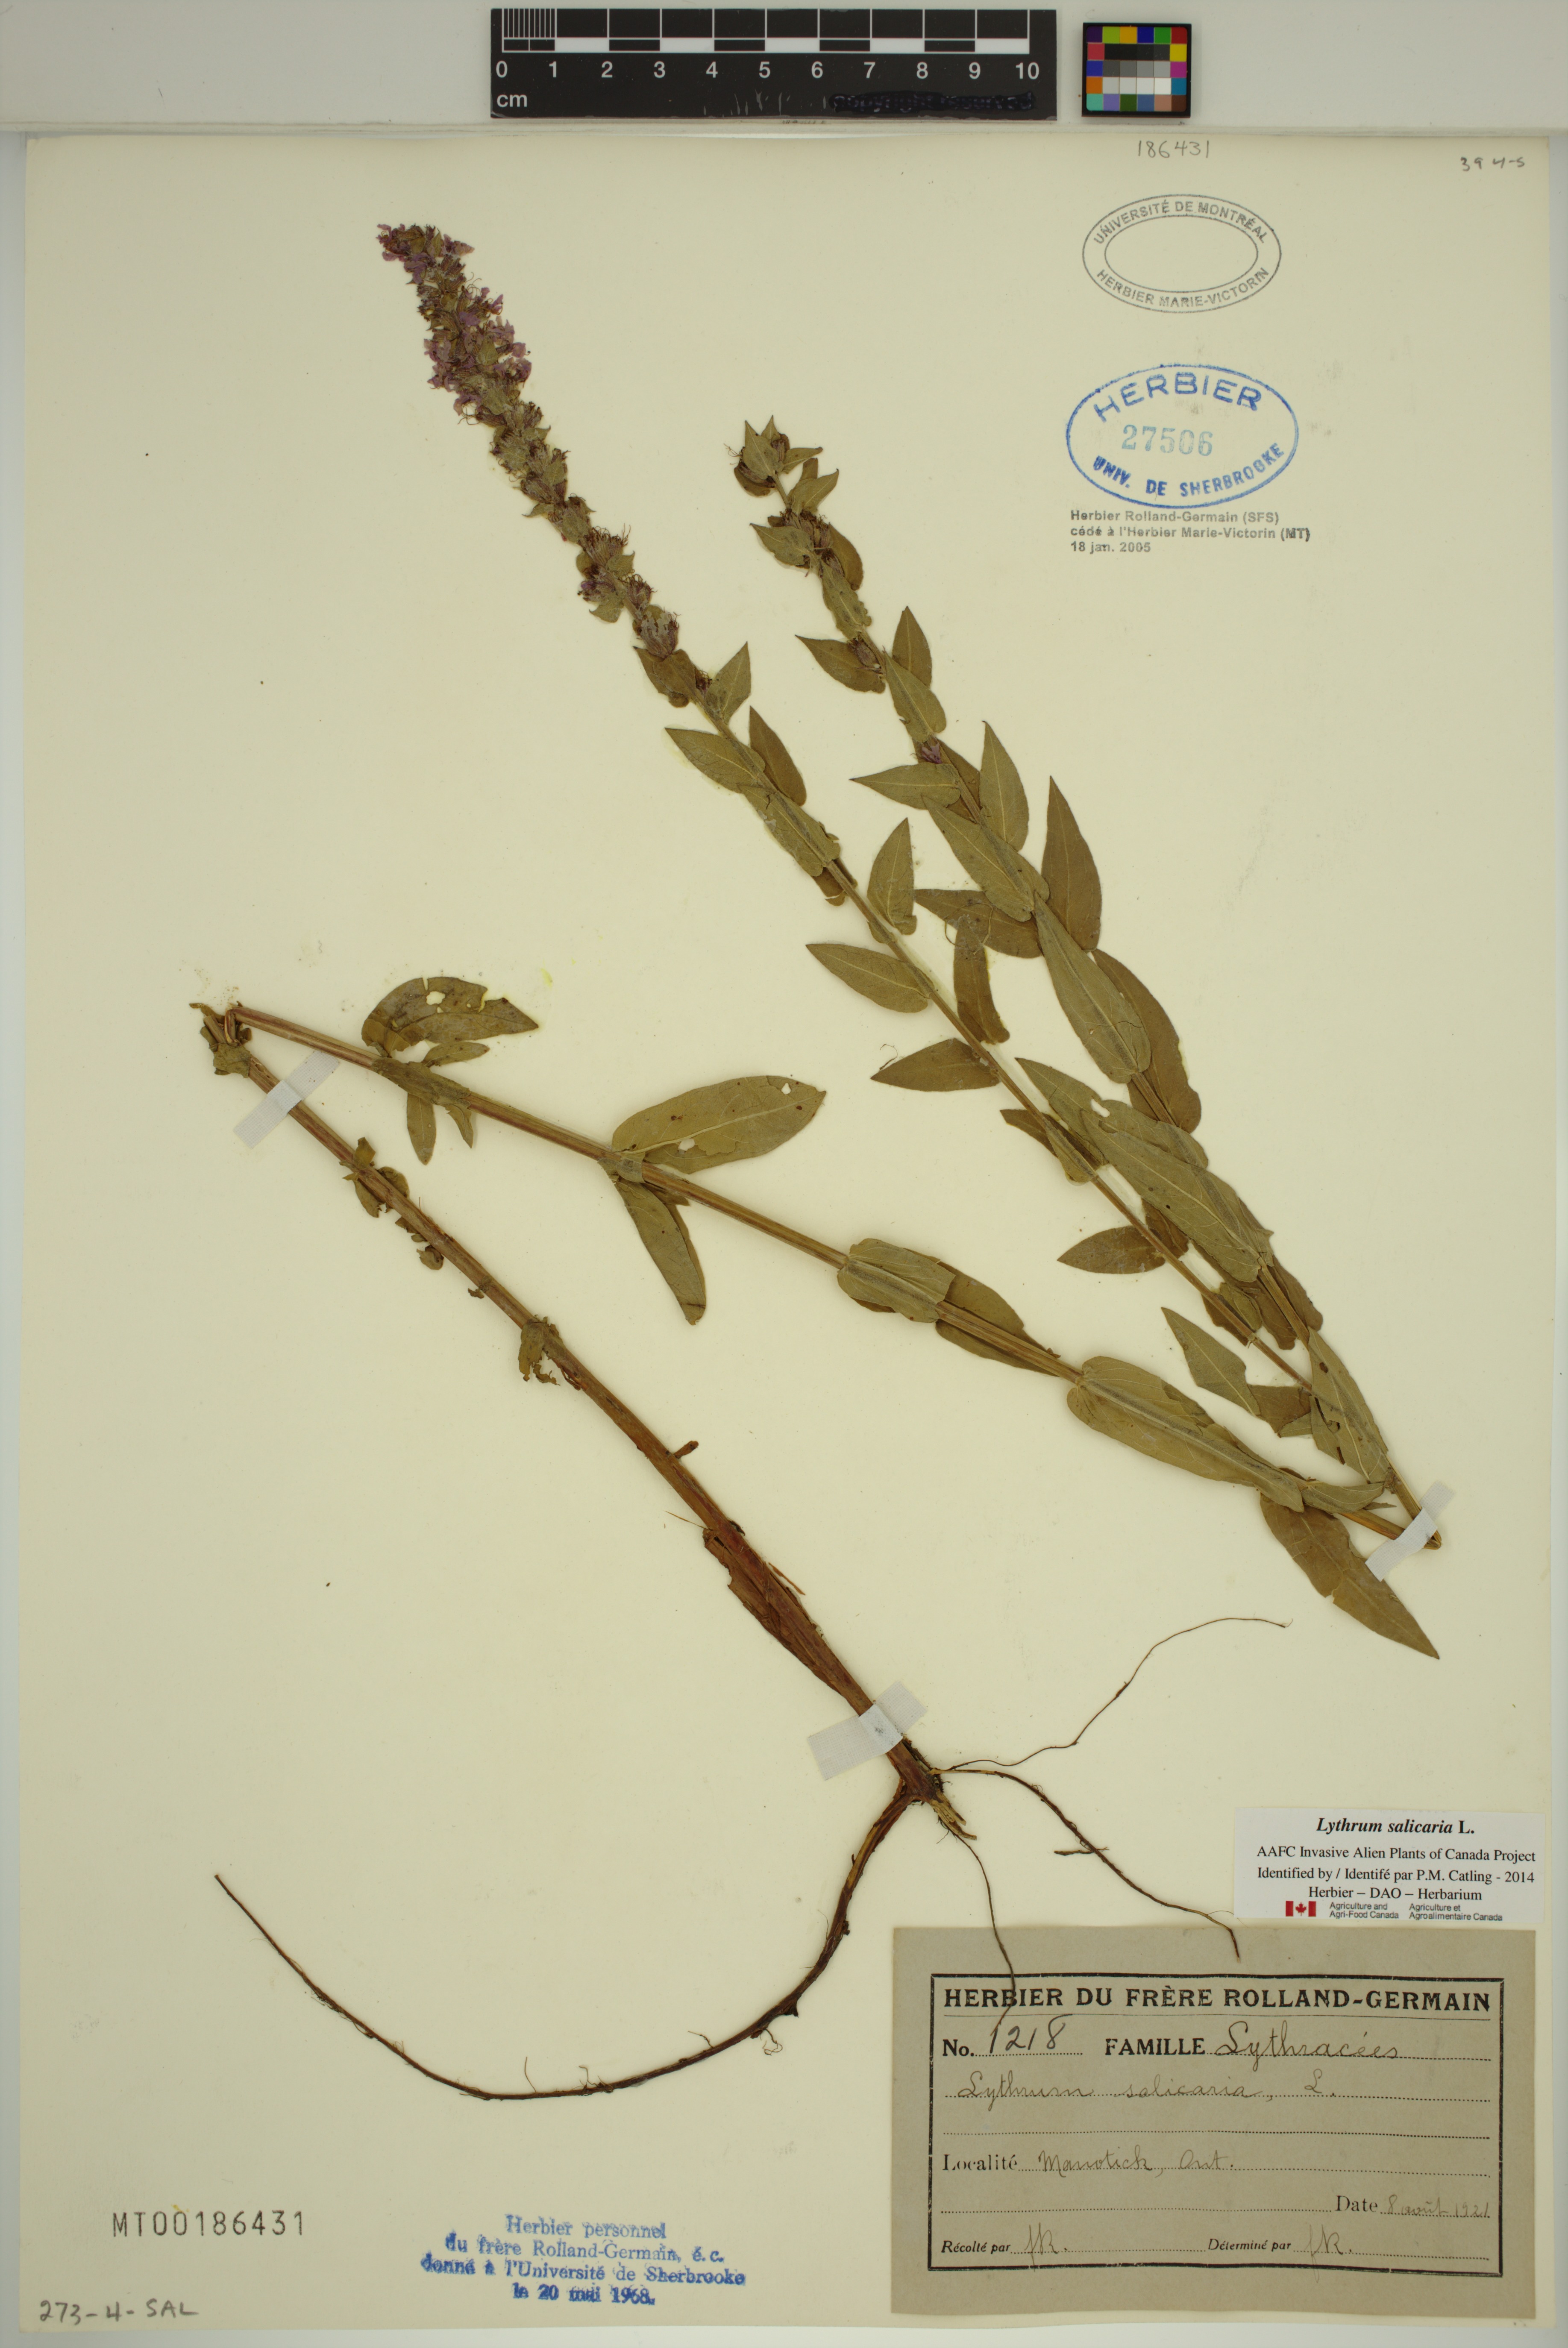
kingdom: Plantae
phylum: Tracheophyta
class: Magnoliopsida
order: Myrtales
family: Lythraceae
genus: Lythrum
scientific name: Lythrum salicaria
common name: Purple loosestrife
